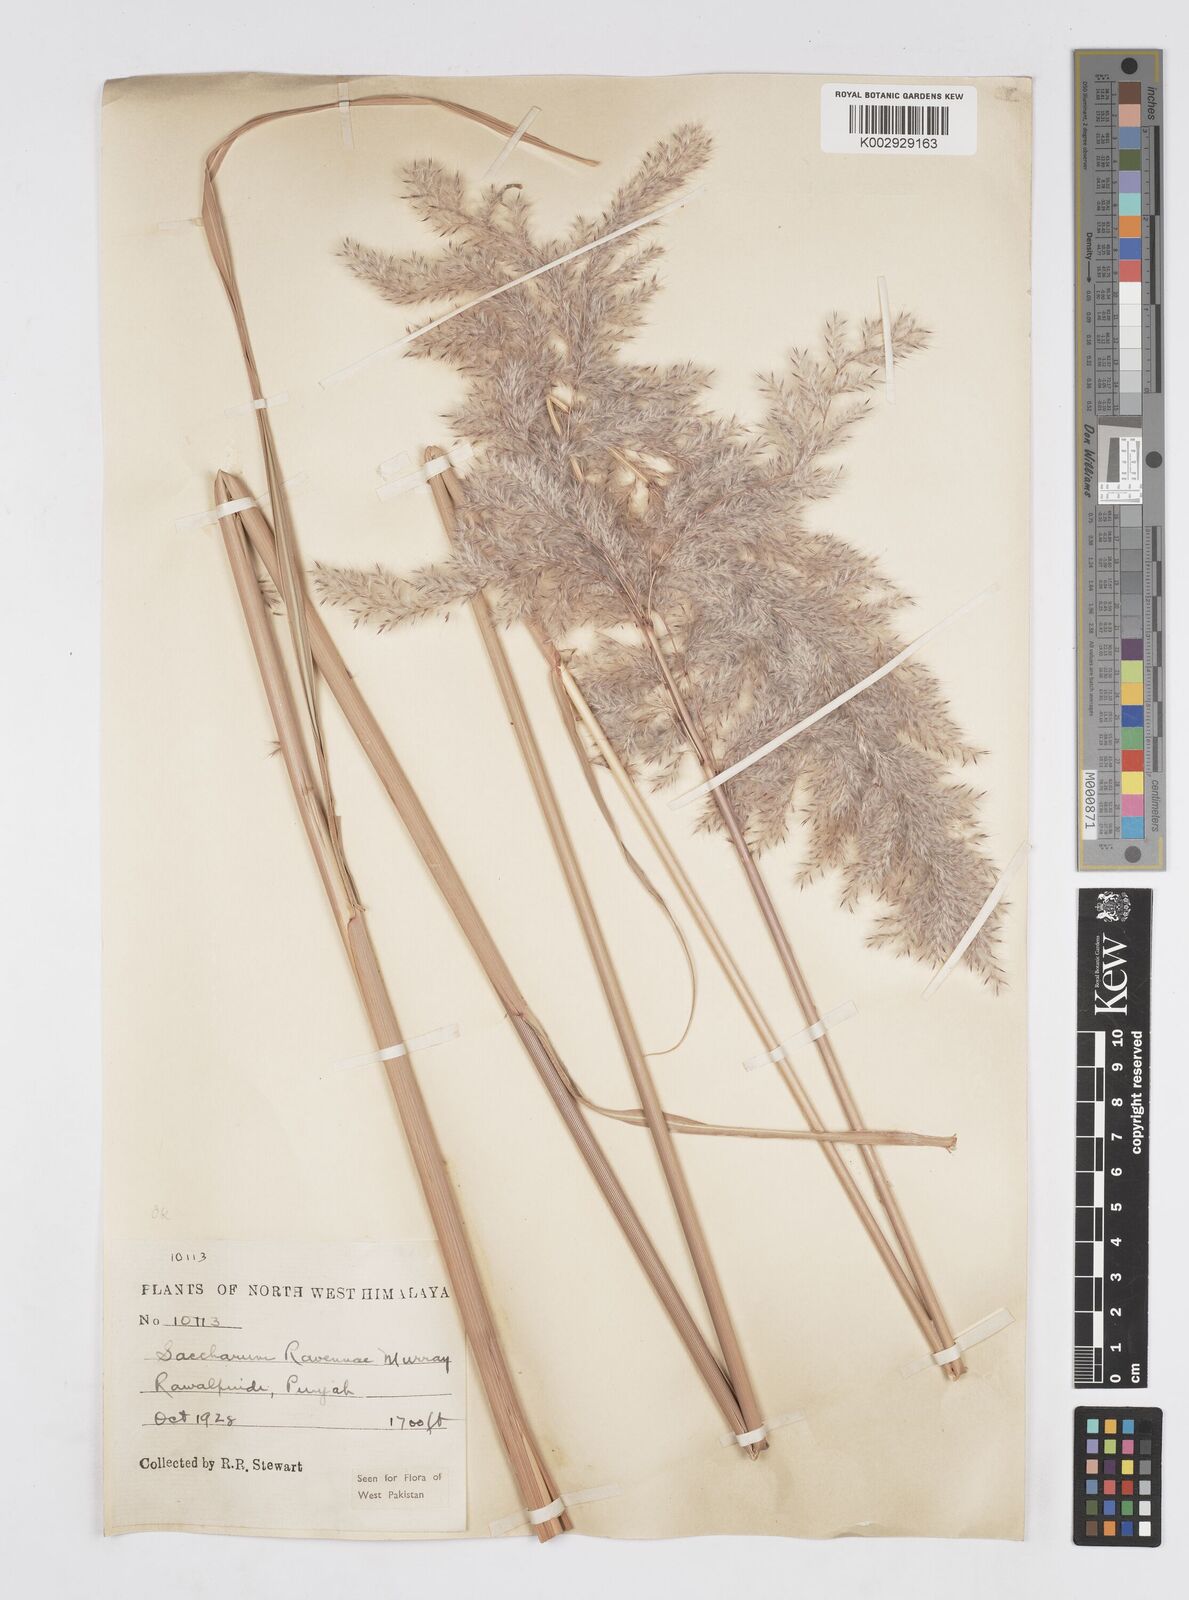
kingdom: Plantae
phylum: Tracheophyta
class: Liliopsida
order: Poales
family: Poaceae
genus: Tripidium
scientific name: Tripidium ravennae
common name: Ravenna grass
